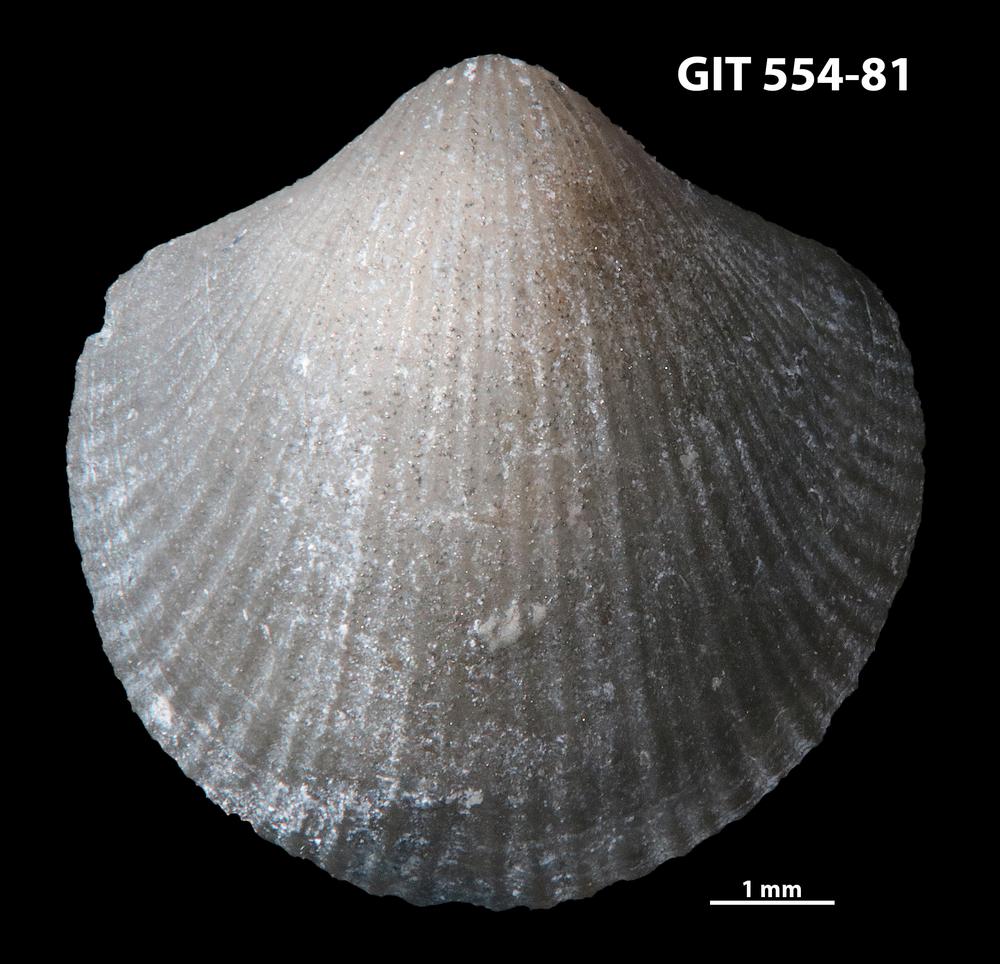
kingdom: Animalia
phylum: Brachiopoda
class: Rhynchonellata
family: Dalmanellidae
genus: Visbyella
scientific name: Visbyella pygmae
